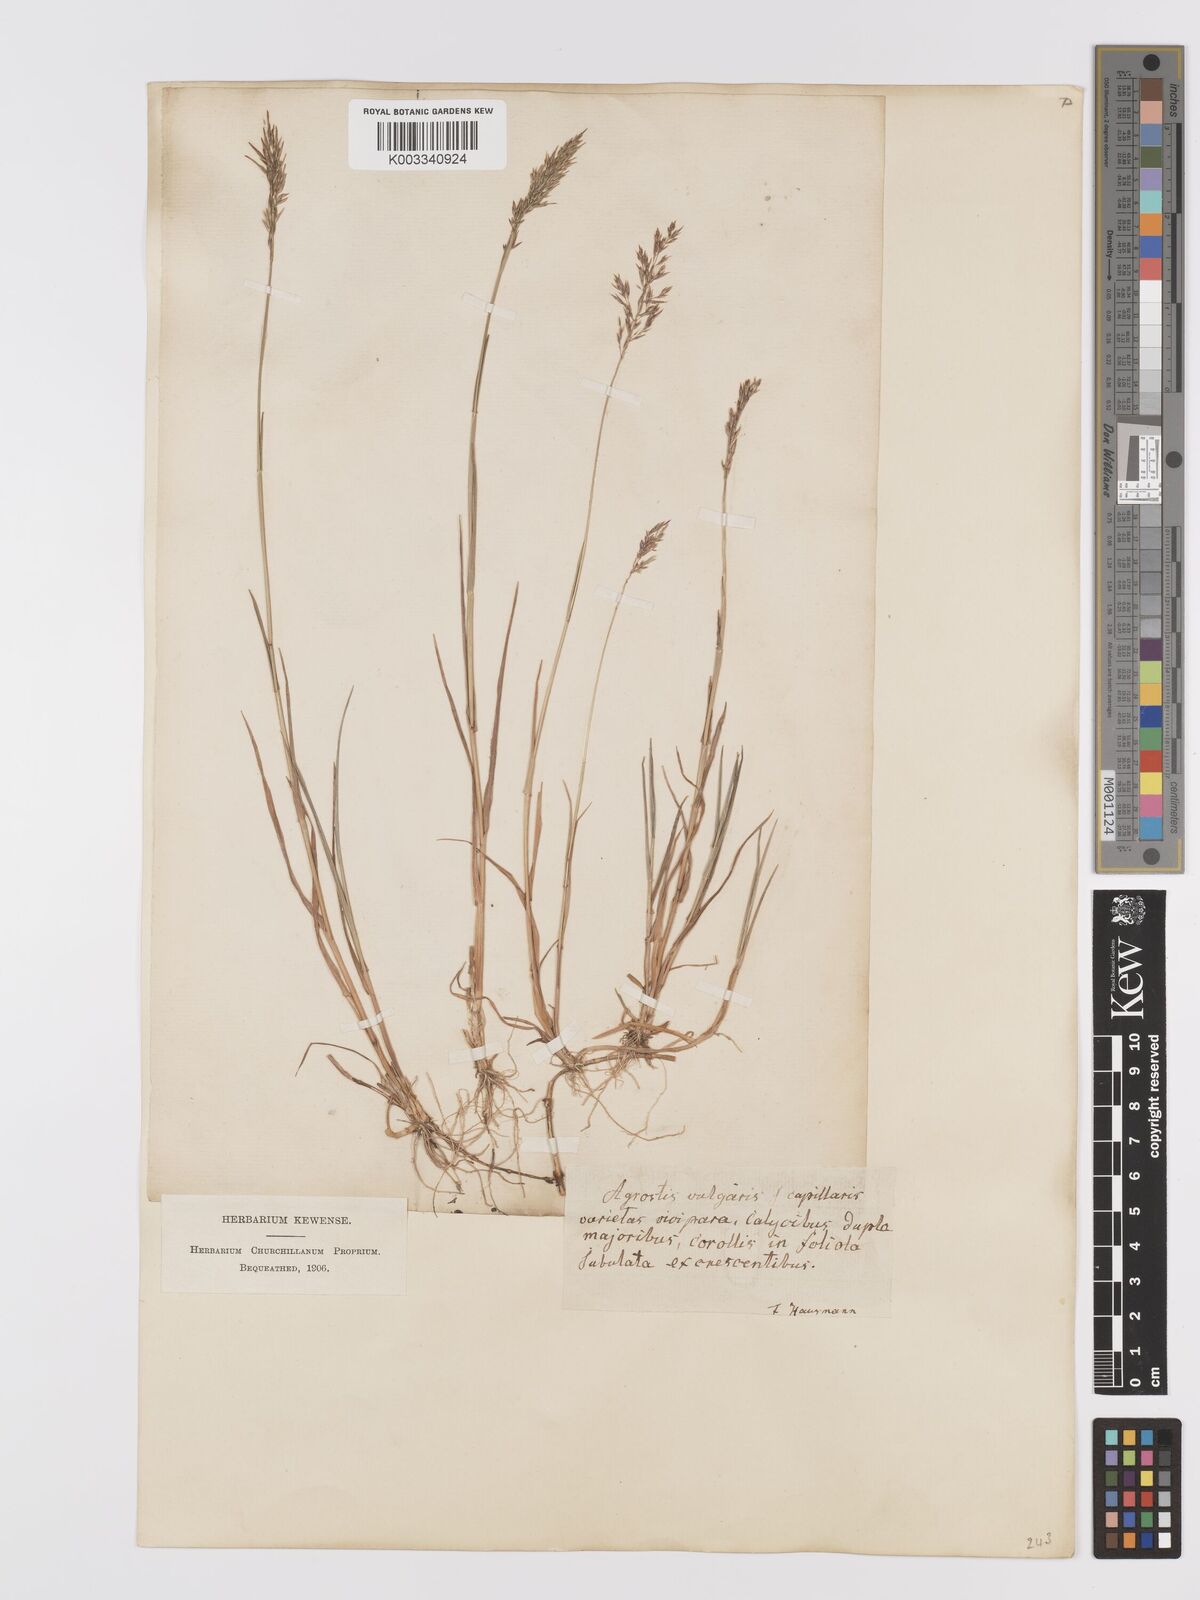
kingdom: Plantae
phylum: Tracheophyta
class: Liliopsida
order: Poales
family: Poaceae
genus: Agrostis
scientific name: Agrostis capillaris
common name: Colonial bentgrass
